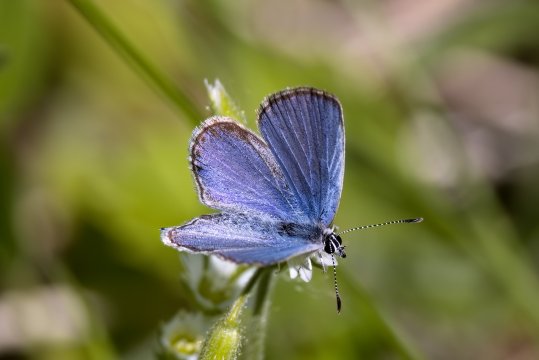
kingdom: Animalia
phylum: Arthropoda
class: Insecta
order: Lepidoptera
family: Lycaenidae
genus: Elkalyce
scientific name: Elkalyce amyntula
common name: Western Tailed-Blue
